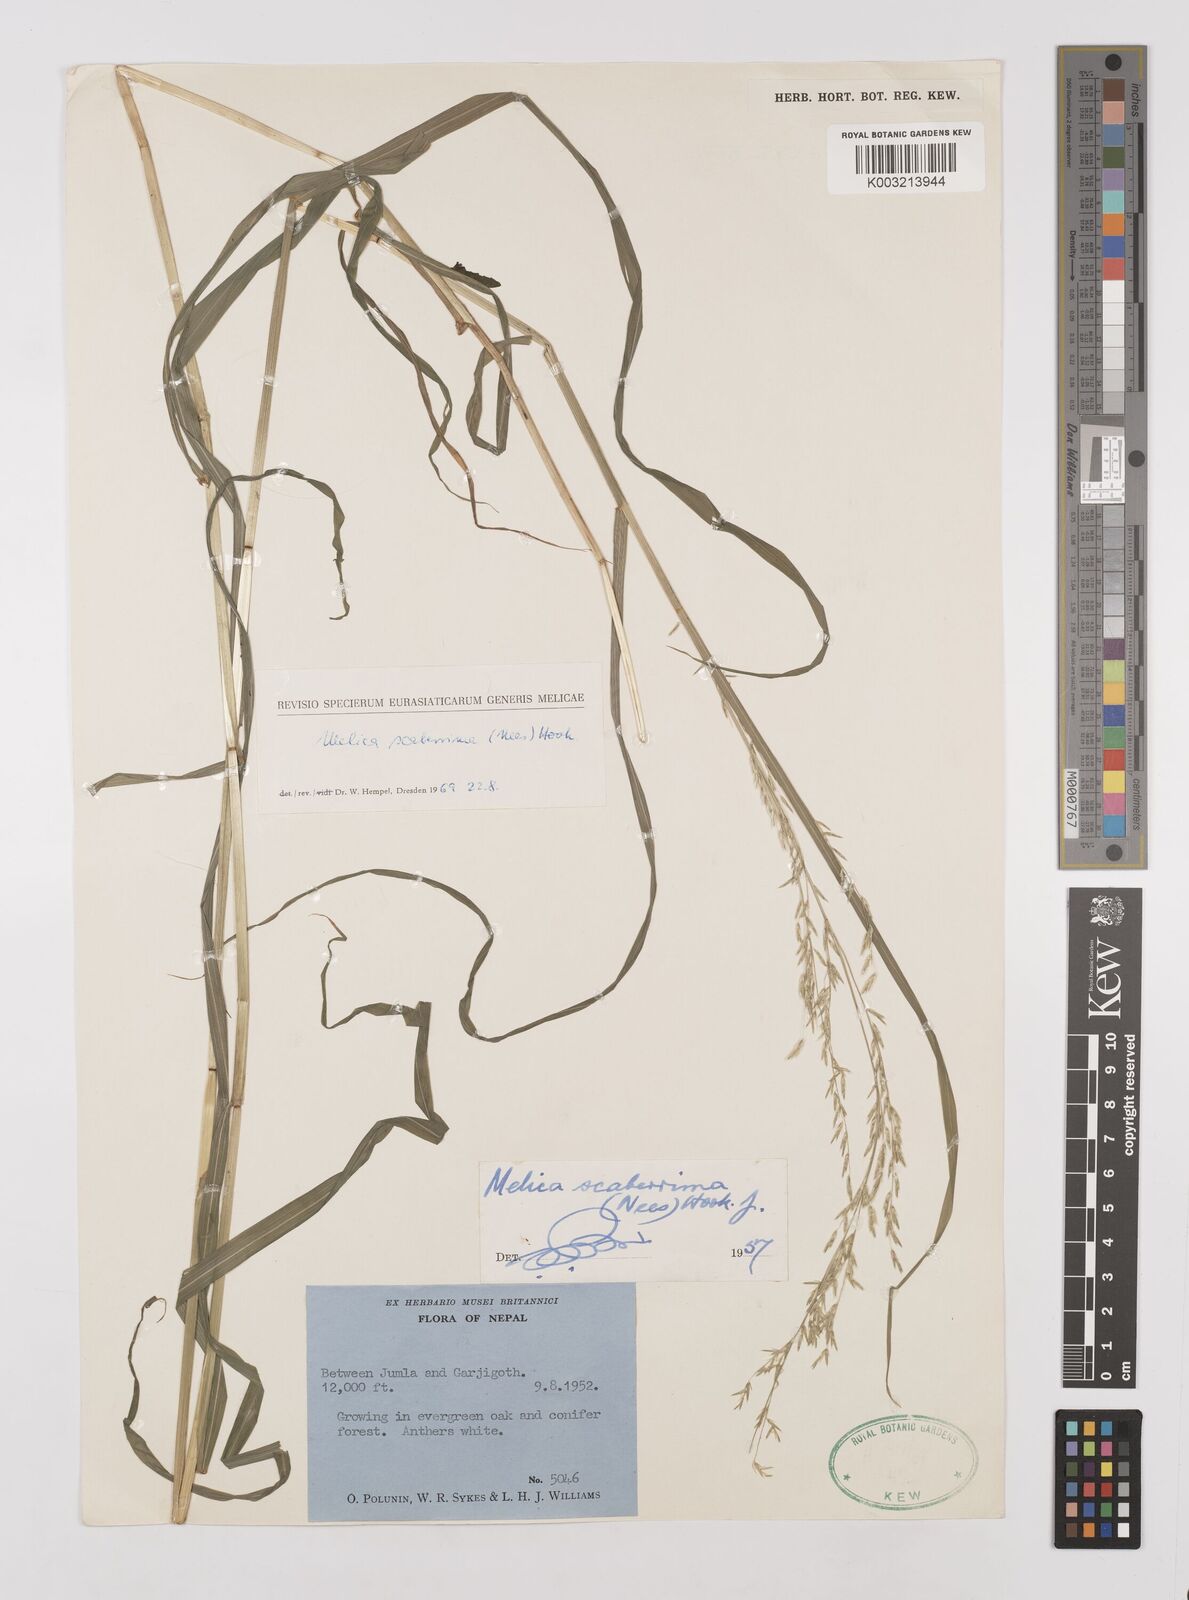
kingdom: Plantae
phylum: Tracheophyta
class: Liliopsida
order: Poales
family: Poaceae
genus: Melica
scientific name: Melica scaberrima
